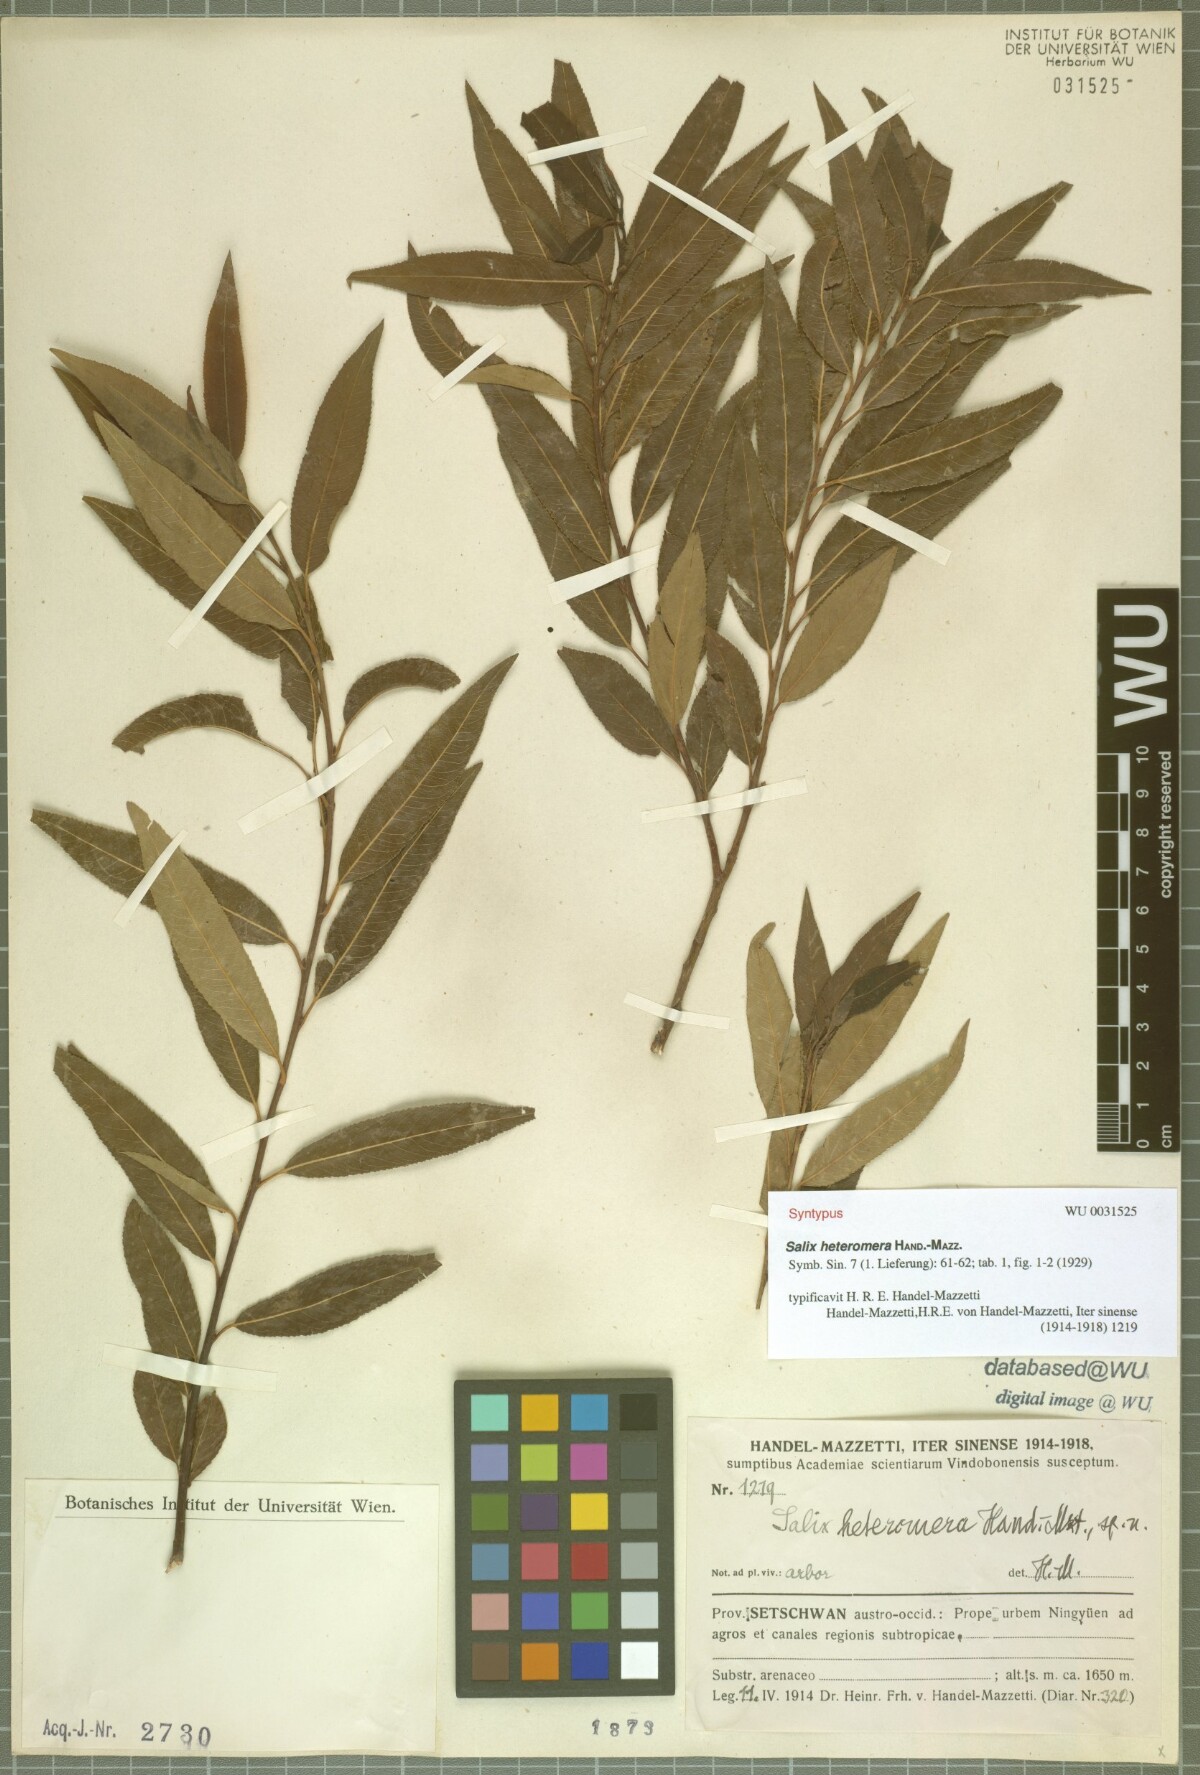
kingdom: Plantae
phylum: Tracheophyta
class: Magnoliopsida
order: Malpighiales
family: Salicaceae
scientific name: Salicaceae
